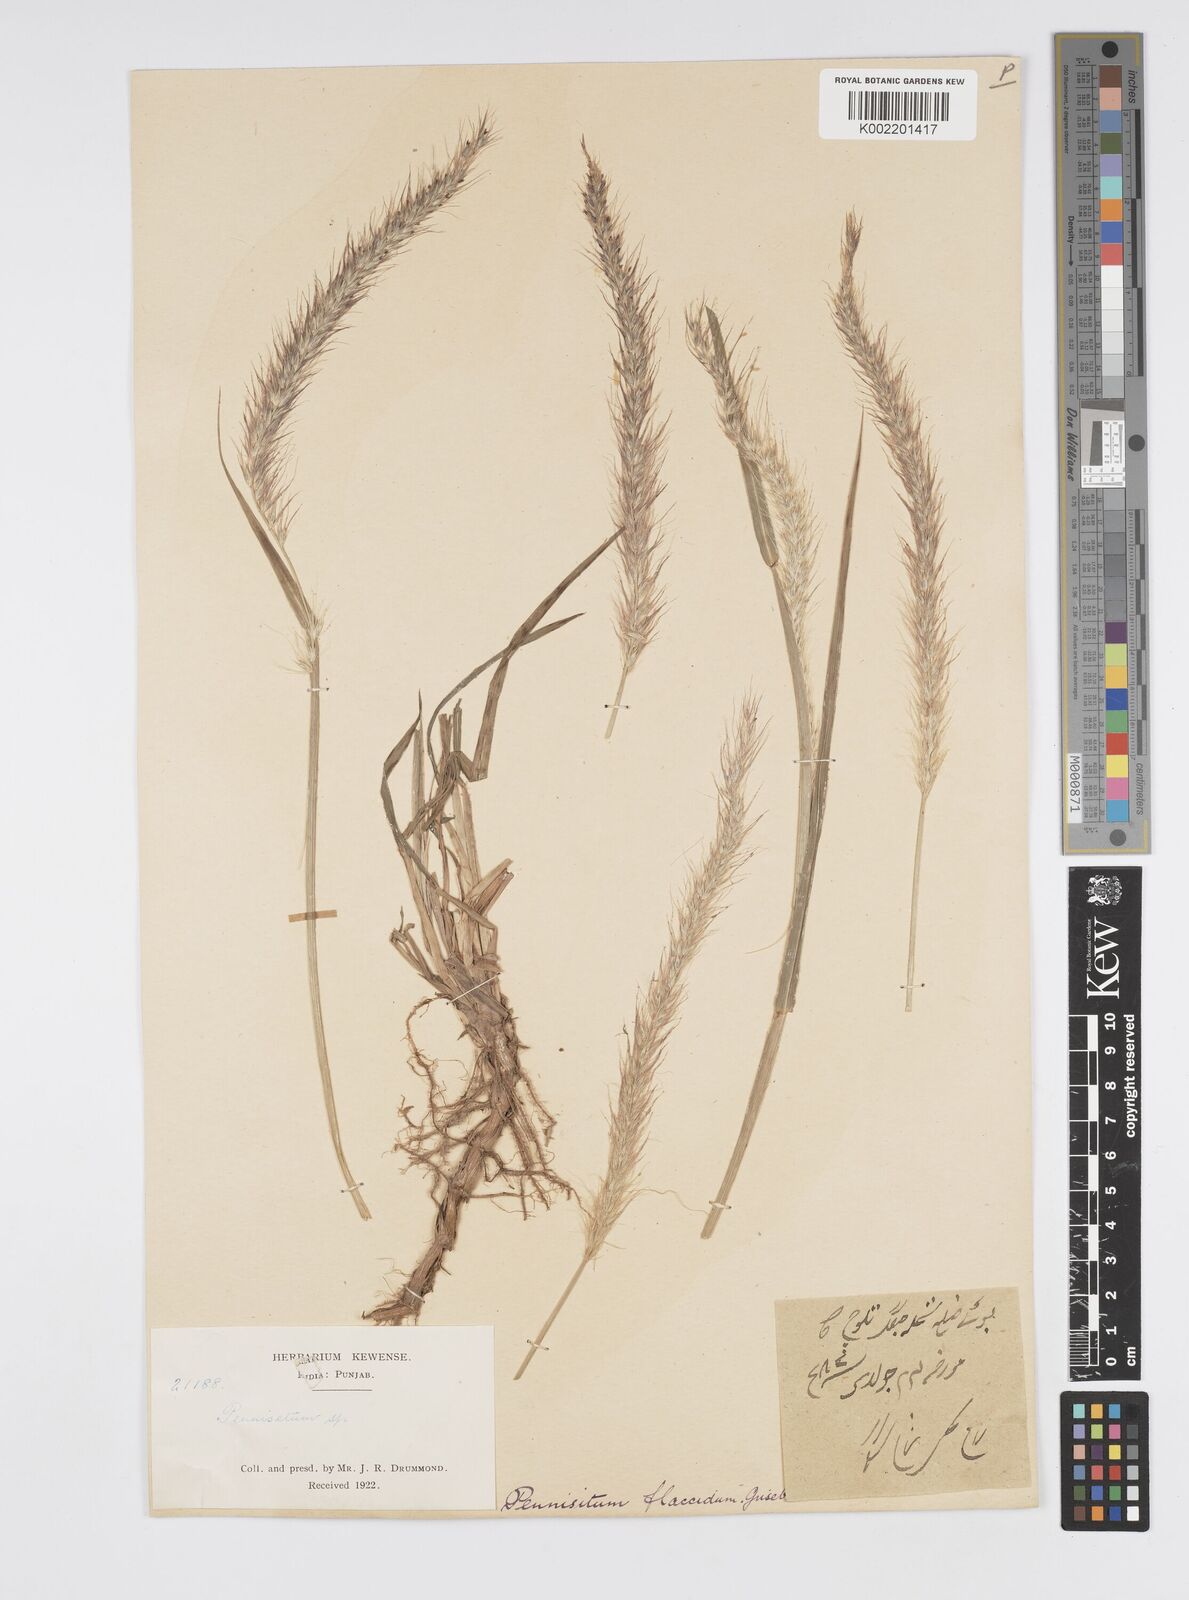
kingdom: Plantae
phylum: Tracheophyta
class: Liliopsida
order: Poales
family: Poaceae
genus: Cenchrus
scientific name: Cenchrus flaccidus
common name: Flaccid grass
